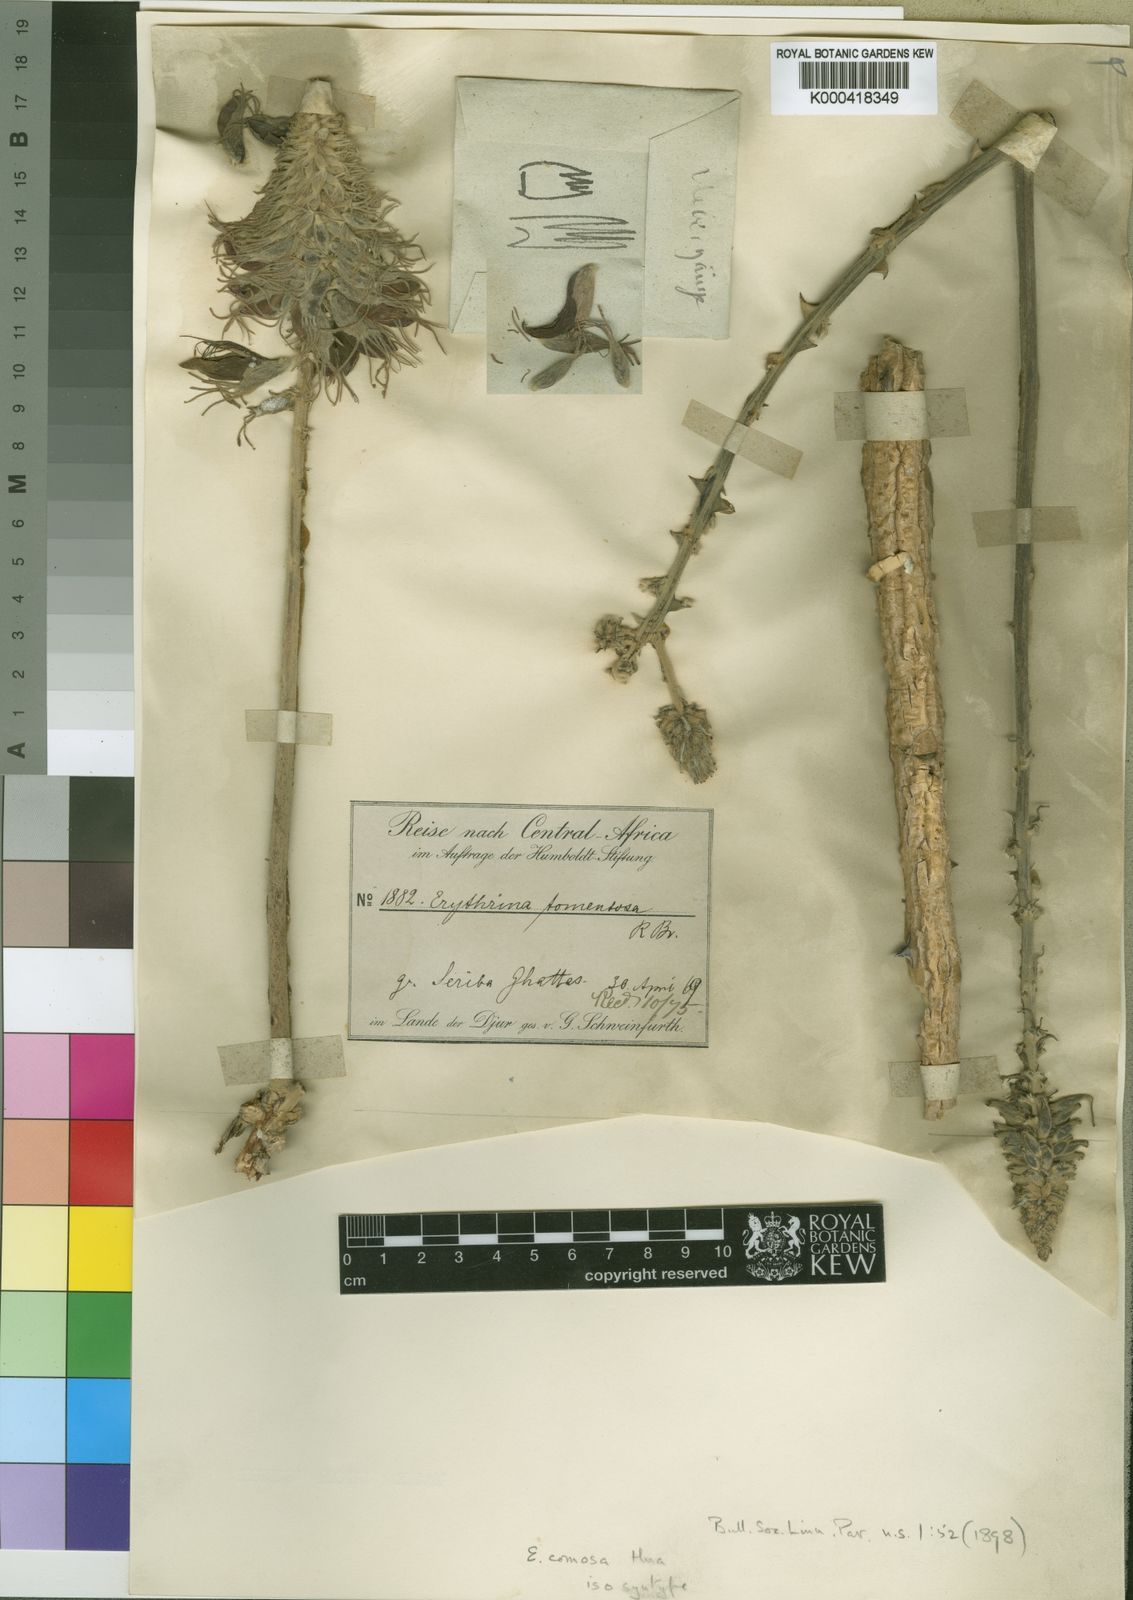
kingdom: Plantae
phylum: Tracheophyta
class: Magnoliopsida
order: Fabales
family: Fabaceae
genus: Erythrina
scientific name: Erythrina
